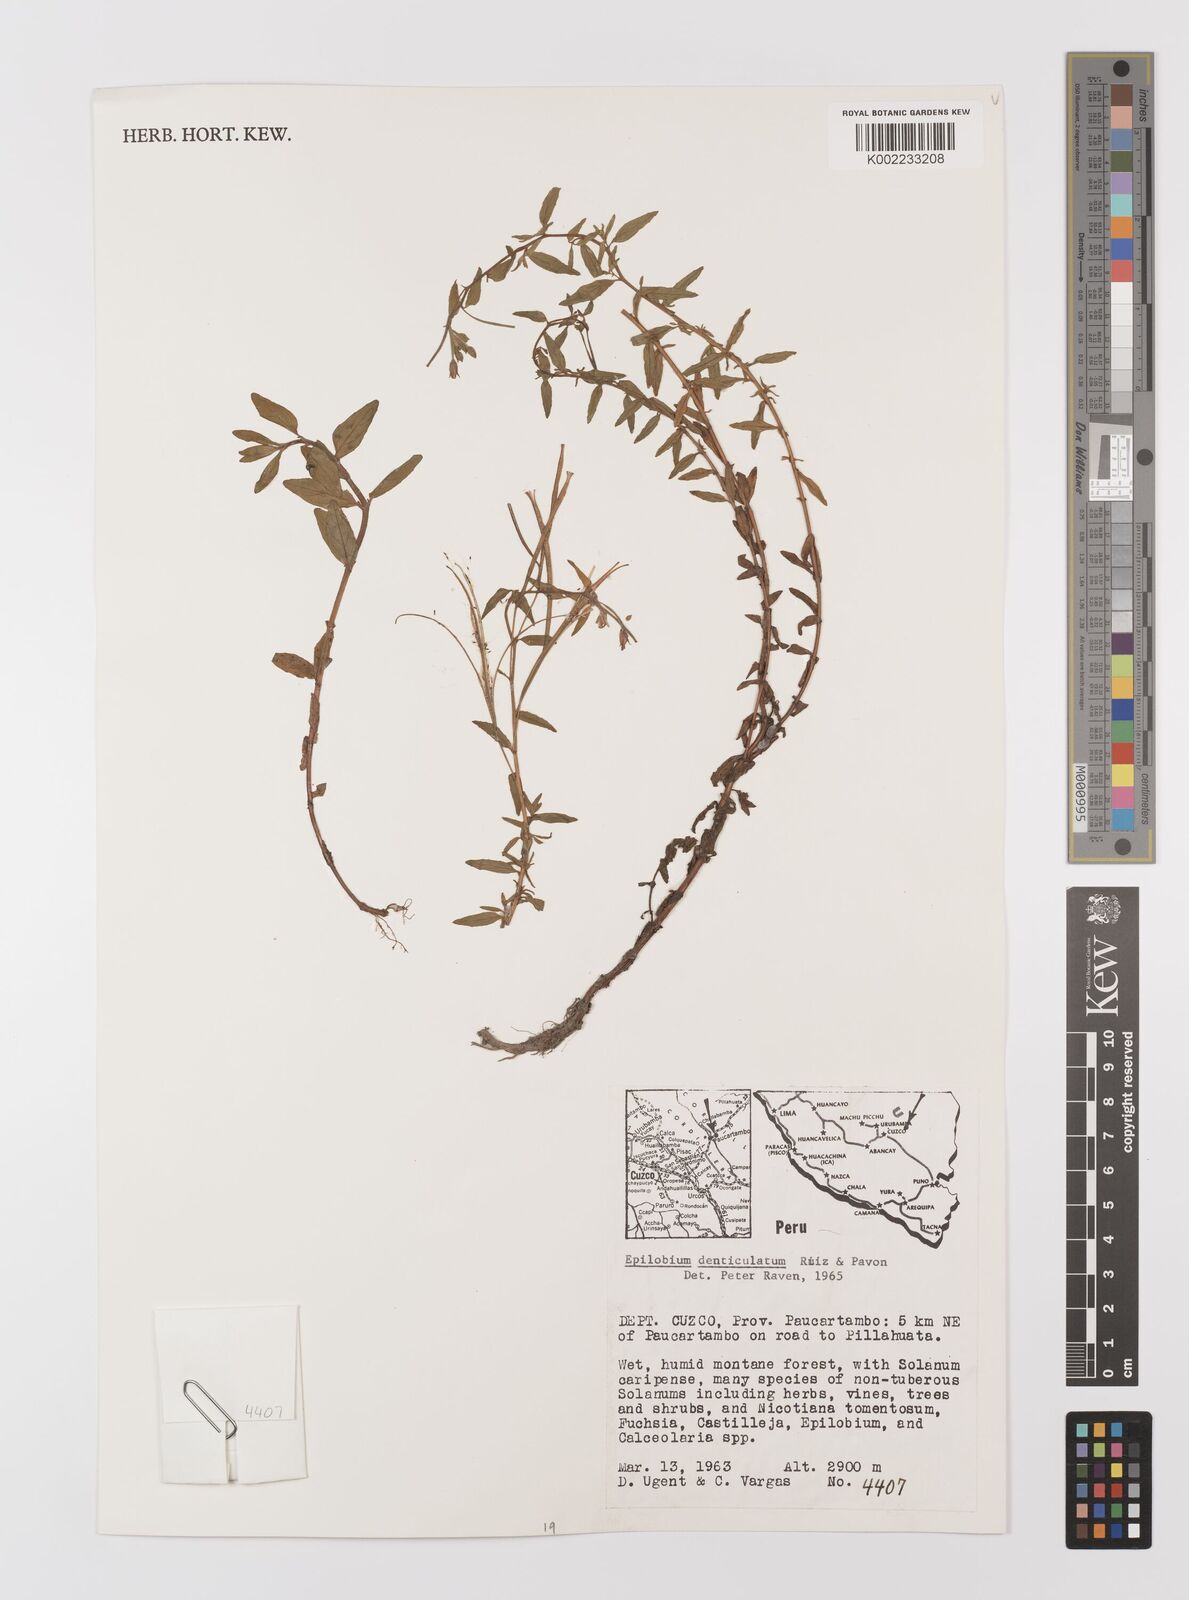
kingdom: Plantae
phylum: Tracheophyta
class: Magnoliopsida
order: Myrtales
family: Onagraceae
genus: Epilobium
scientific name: Epilobium denticulatum
